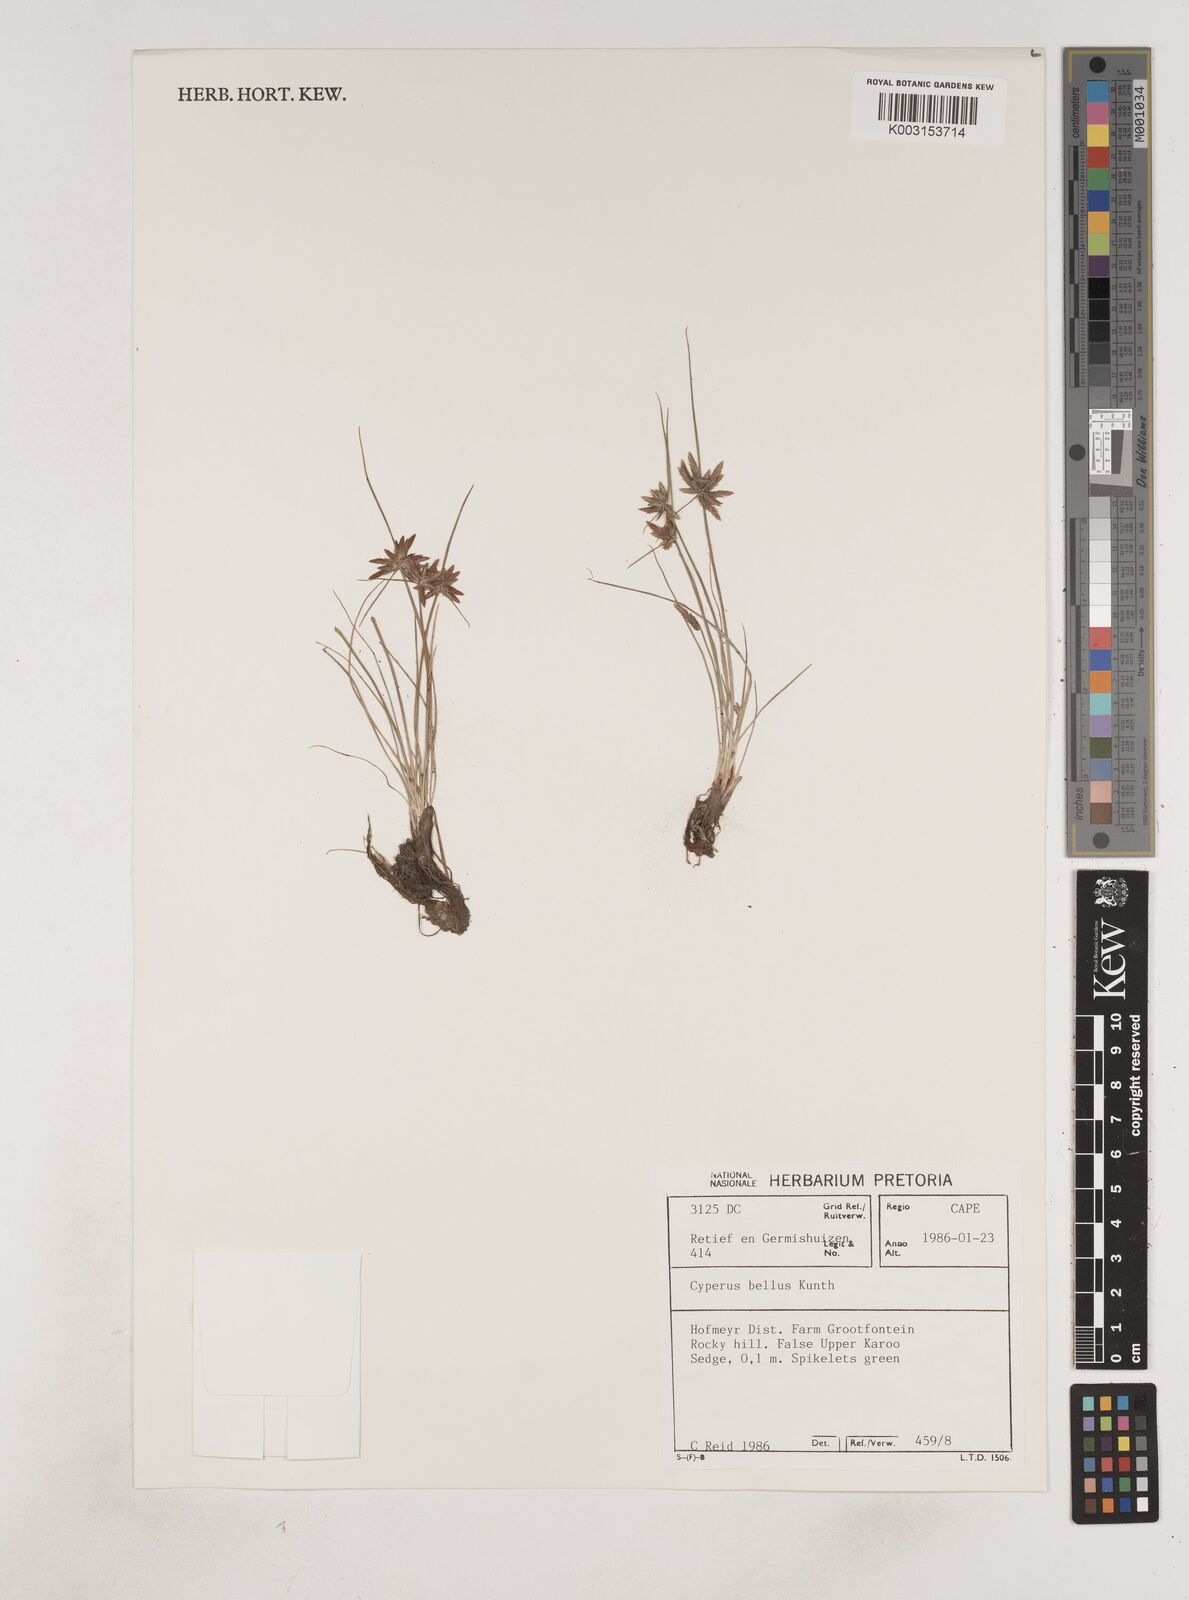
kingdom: Plantae
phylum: Tracheophyta
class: Liliopsida
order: Poales
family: Cyperaceae
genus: Cyperus
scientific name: Cyperus remotiflorus
